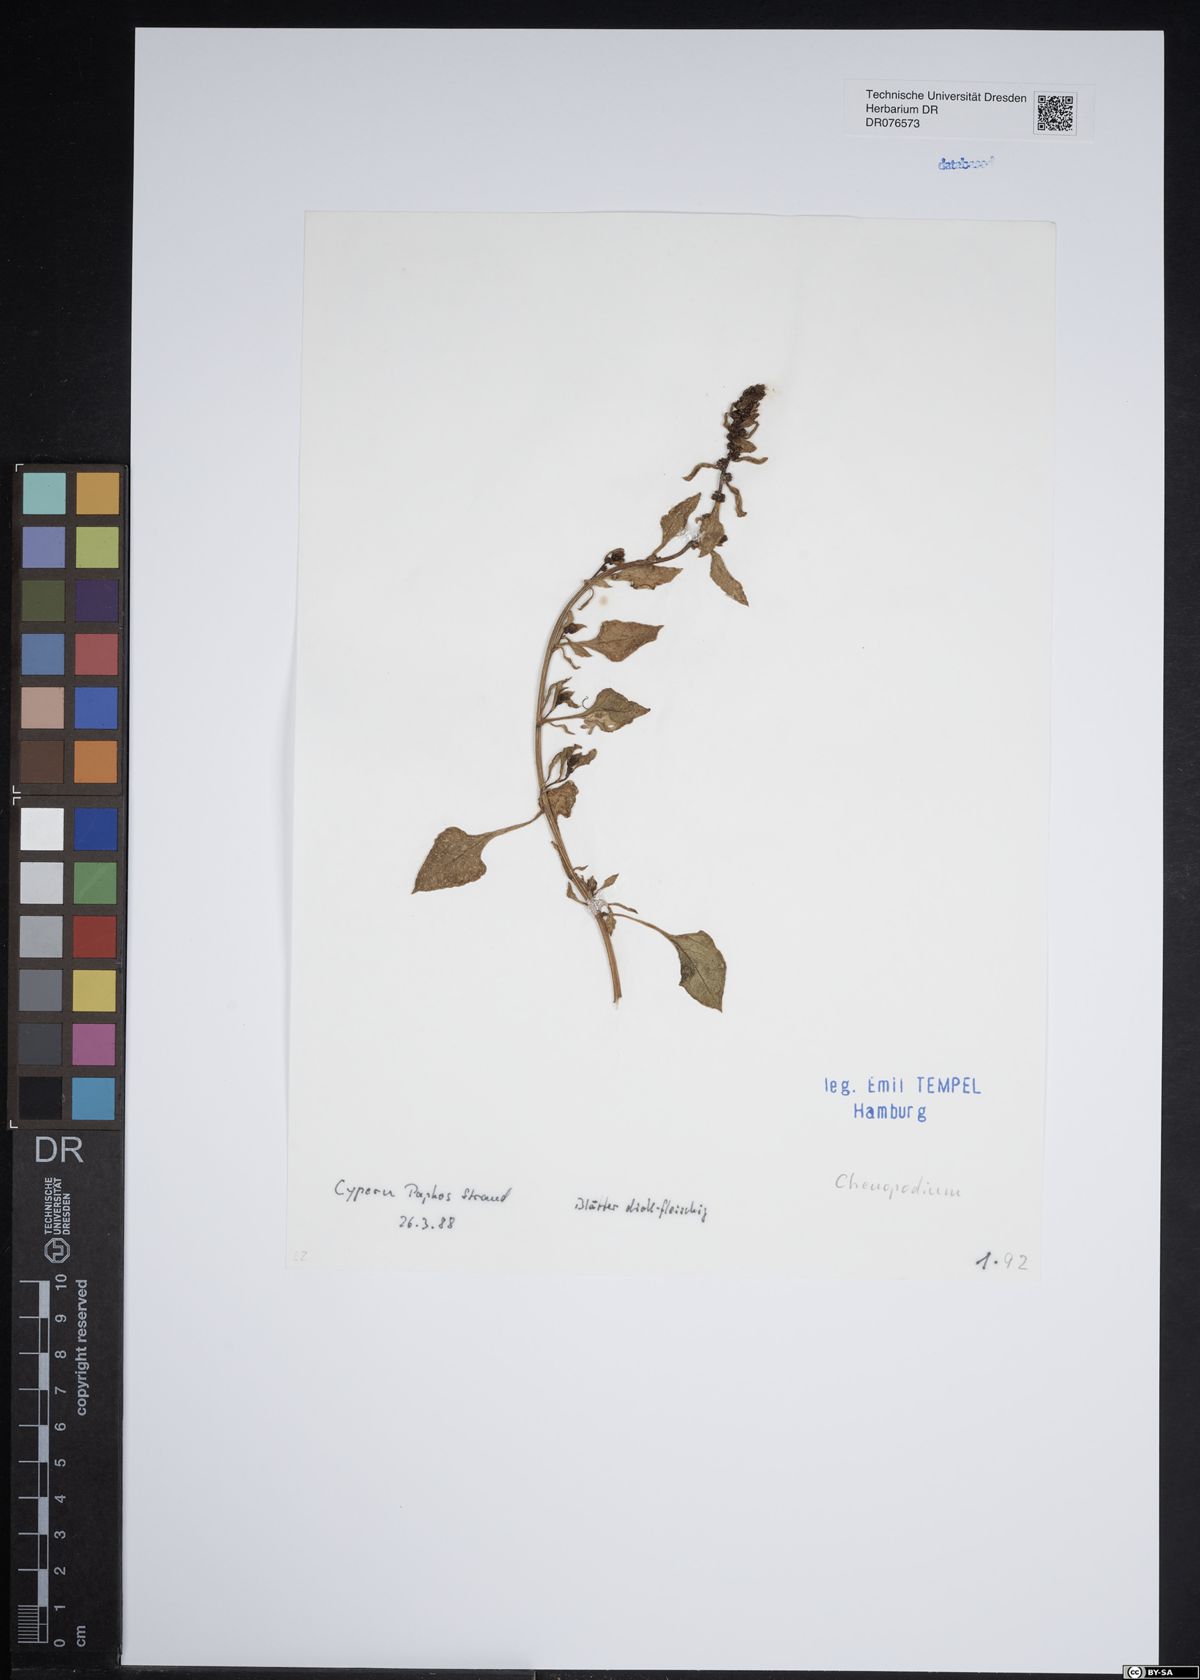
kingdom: Plantae
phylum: Tracheophyta
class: Magnoliopsida
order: Caryophyllales
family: Amaranthaceae
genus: Chenopodium
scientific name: Chenopodium
